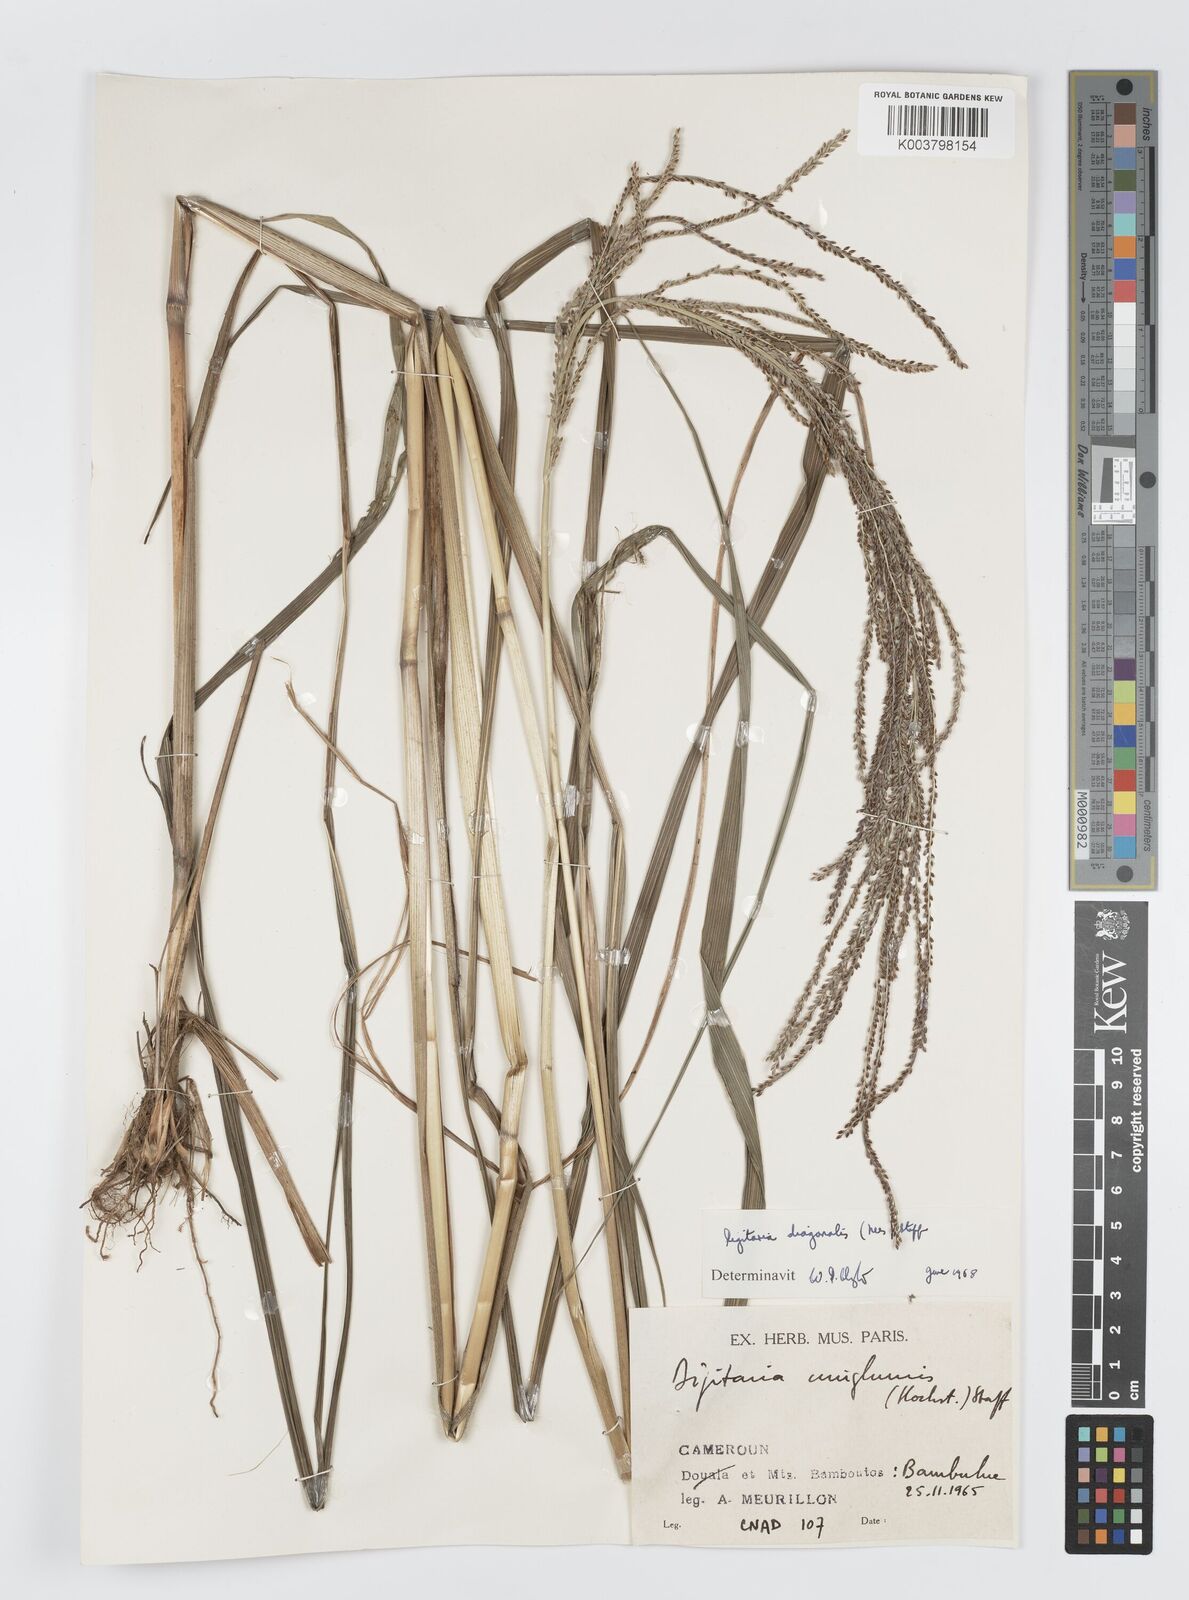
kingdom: Plantae
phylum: Tracheophyta
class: Liliopsida
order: Poales
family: Poaceae
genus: Digitaria
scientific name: Digitaria diagonalis
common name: Brown-seed finger grass
